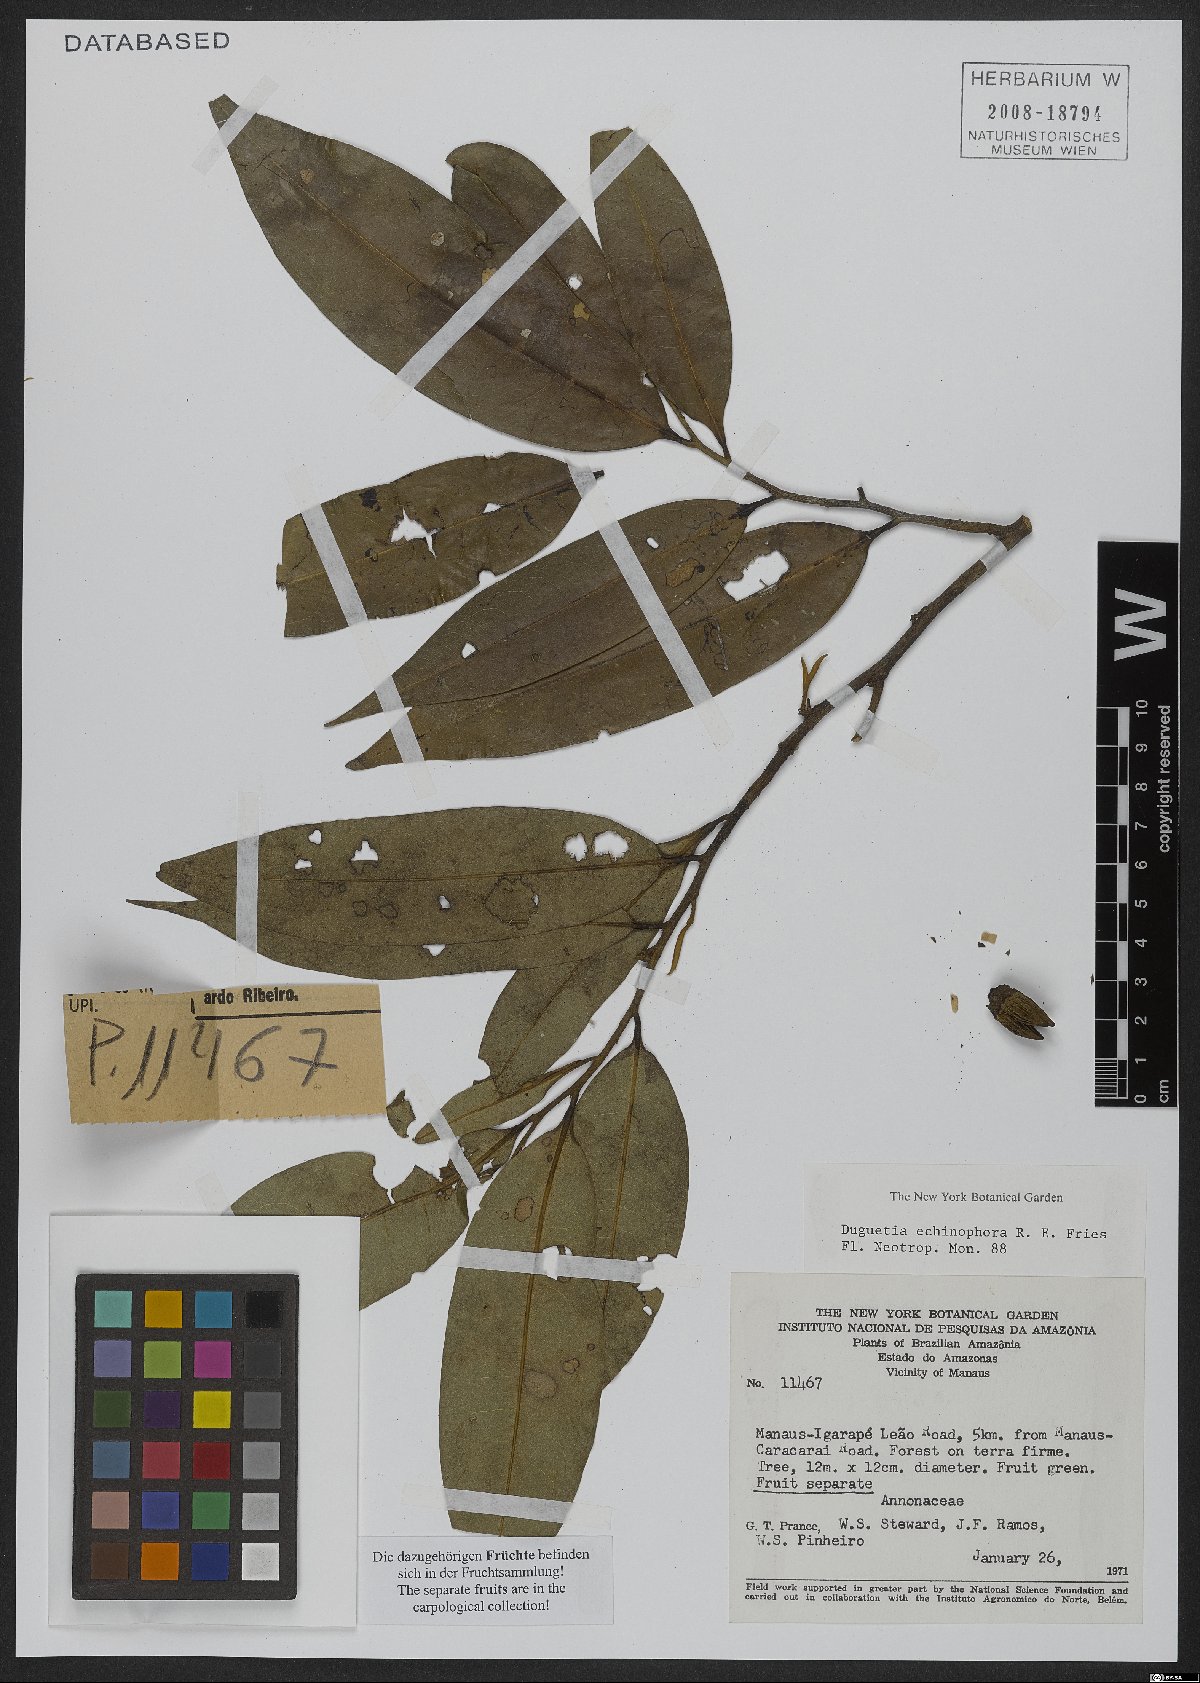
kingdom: Plantae
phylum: Tracheophyta
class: Magnoliopsida
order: Magnoliales
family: Annonaceae
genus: Duguetia
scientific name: Duguetia echinophora
